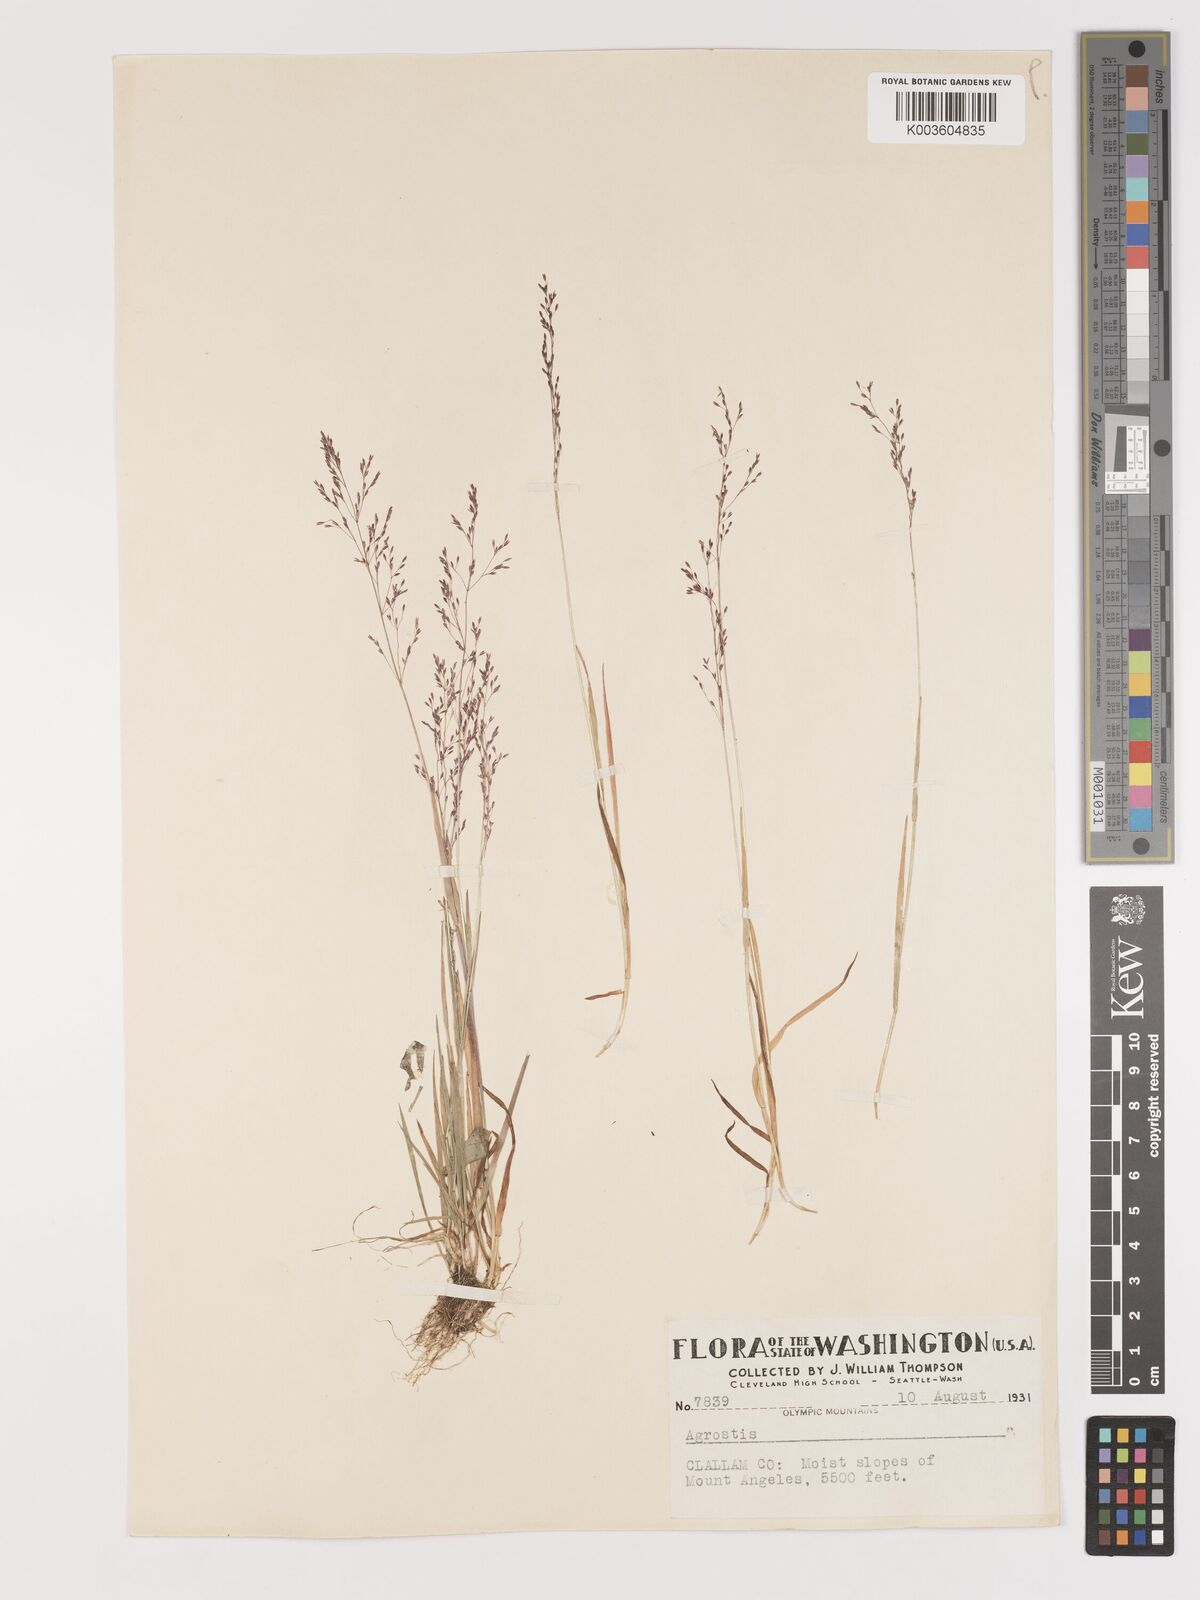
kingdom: Plantae
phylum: Tracheophyta
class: Liliopsida
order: Poales
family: Poaceae
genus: Agrostis
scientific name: Agrostis
